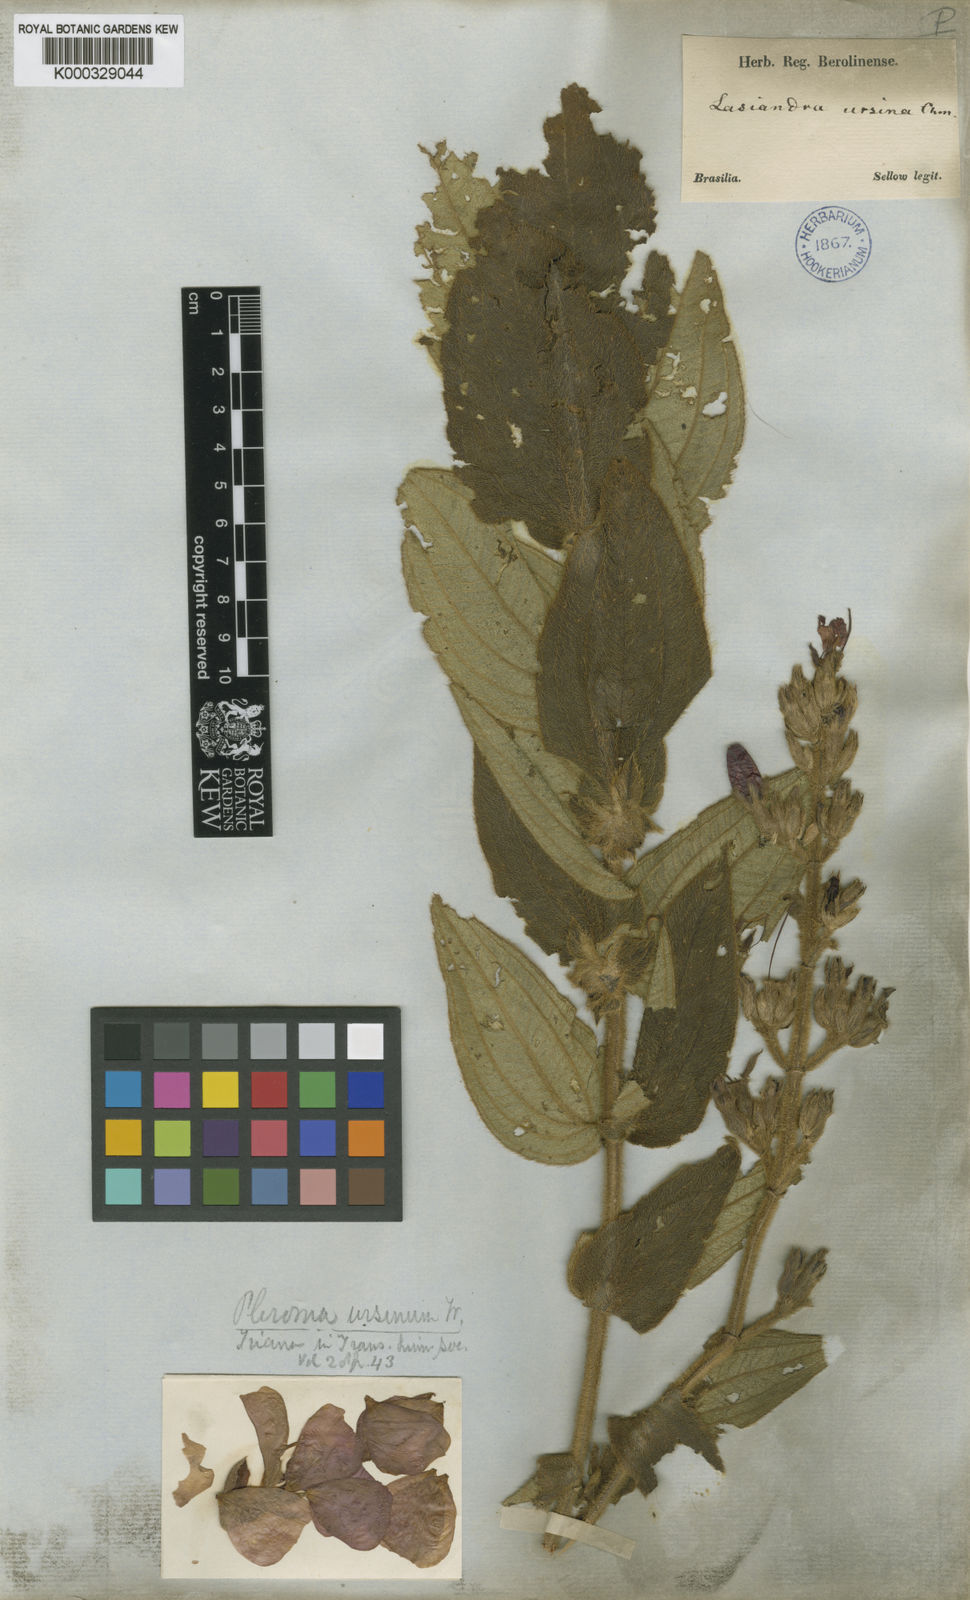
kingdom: Plantae
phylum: Tracheophyta
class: Magnoliopsida
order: Myrtales
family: Melastomataceae
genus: Pleroma
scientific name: Pleroma ursinum
